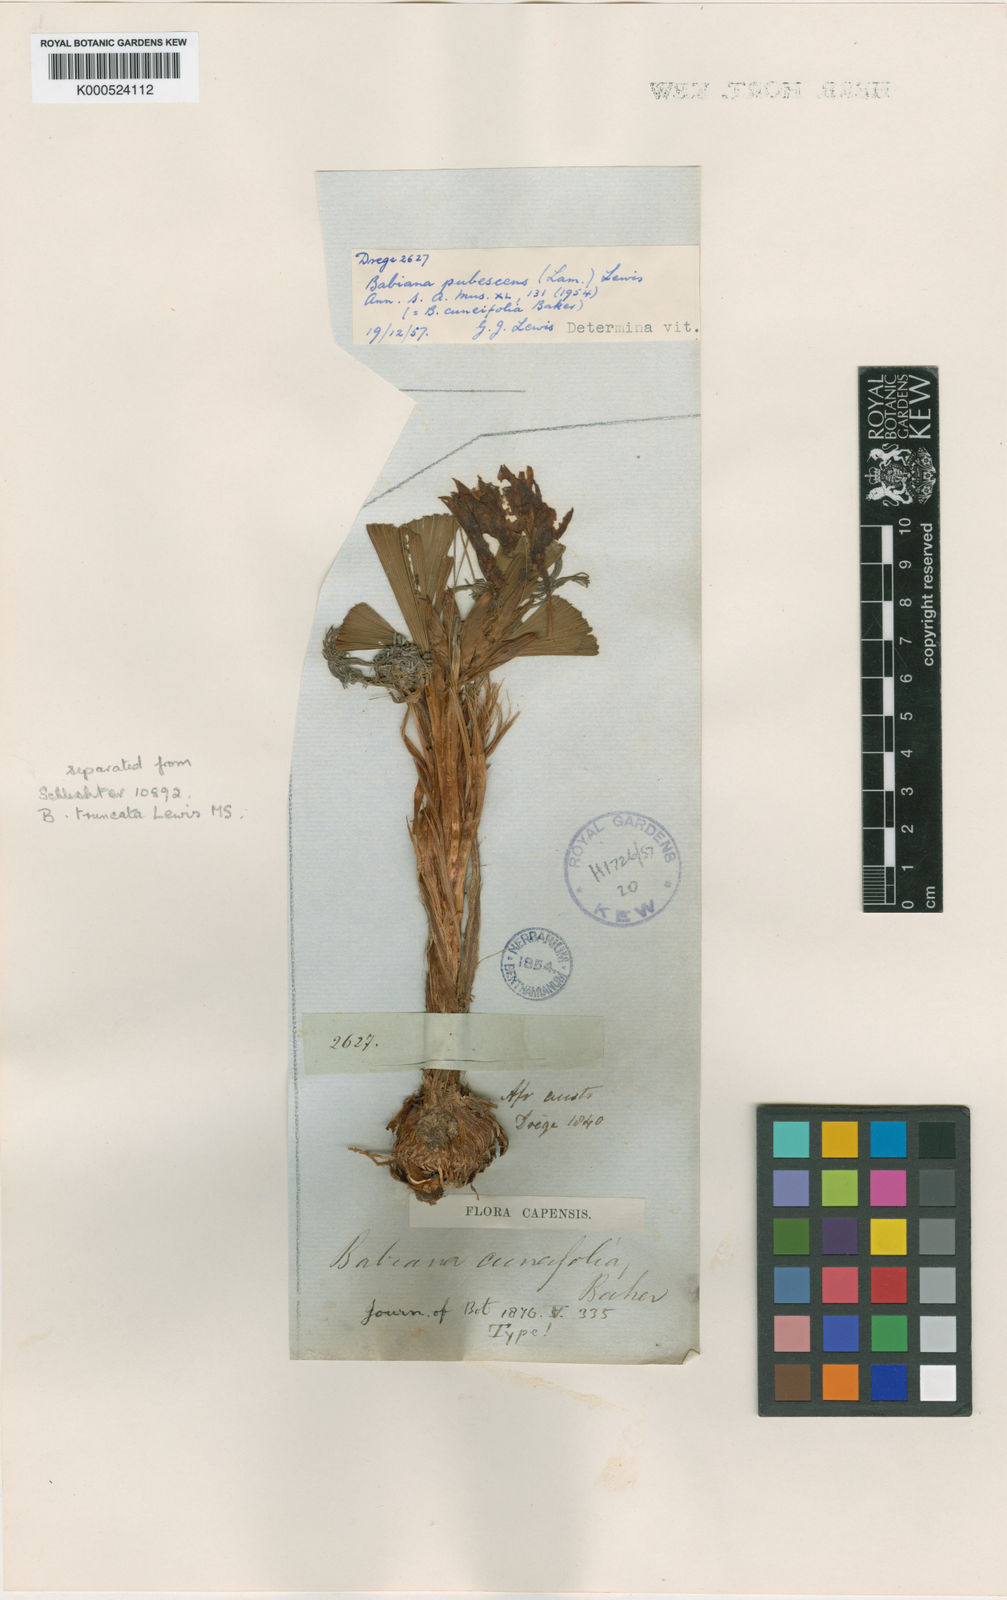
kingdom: Plantae
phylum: Tracheophyta
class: Liliopsida
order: Asparagales
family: Iridaceae
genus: Babiana
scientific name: Babiana flabellifolia
